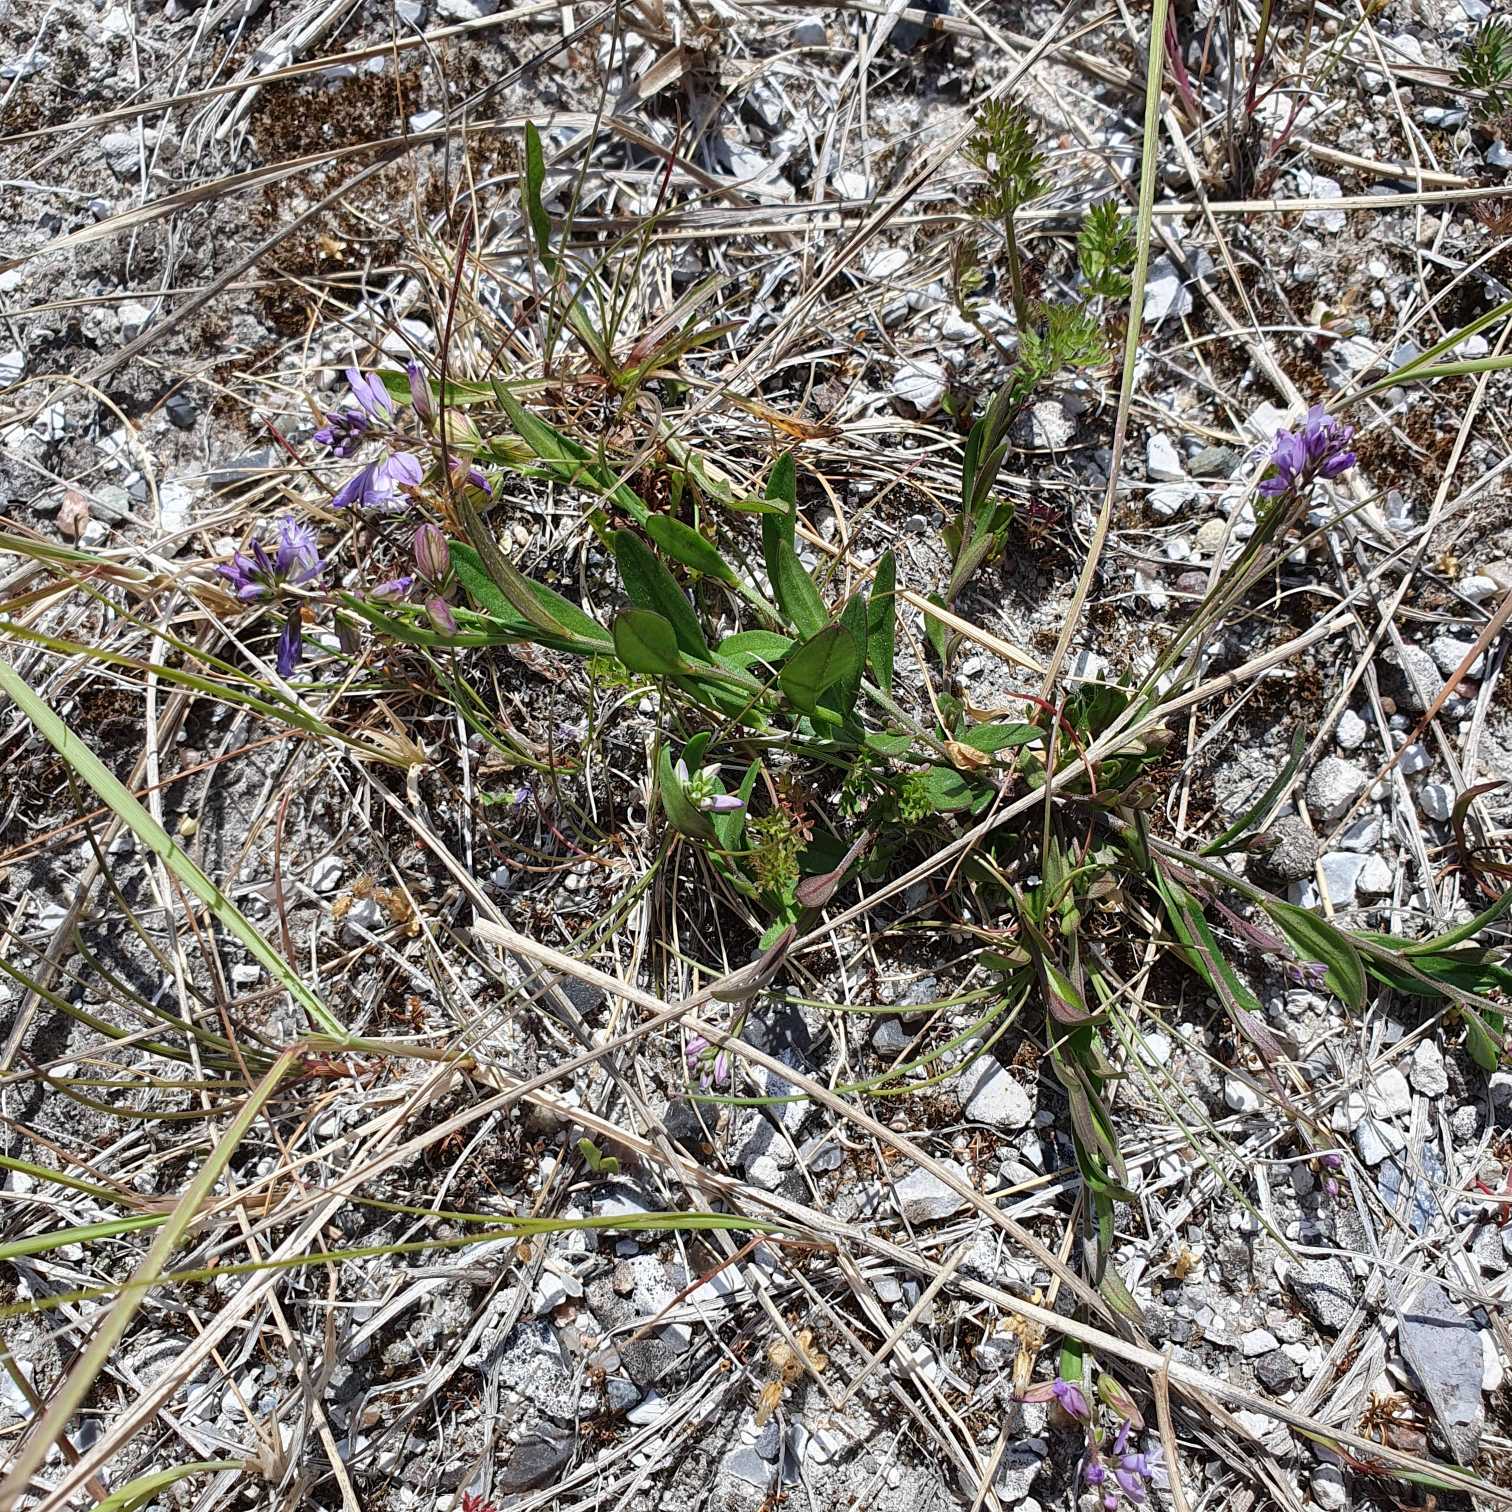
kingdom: Plantae
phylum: Tracheophyta
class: Magnoliopsida
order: Fabales
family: Polygalaceae
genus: Polygala
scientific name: Polygala vulgaris
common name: Almindelig mælkeurt
